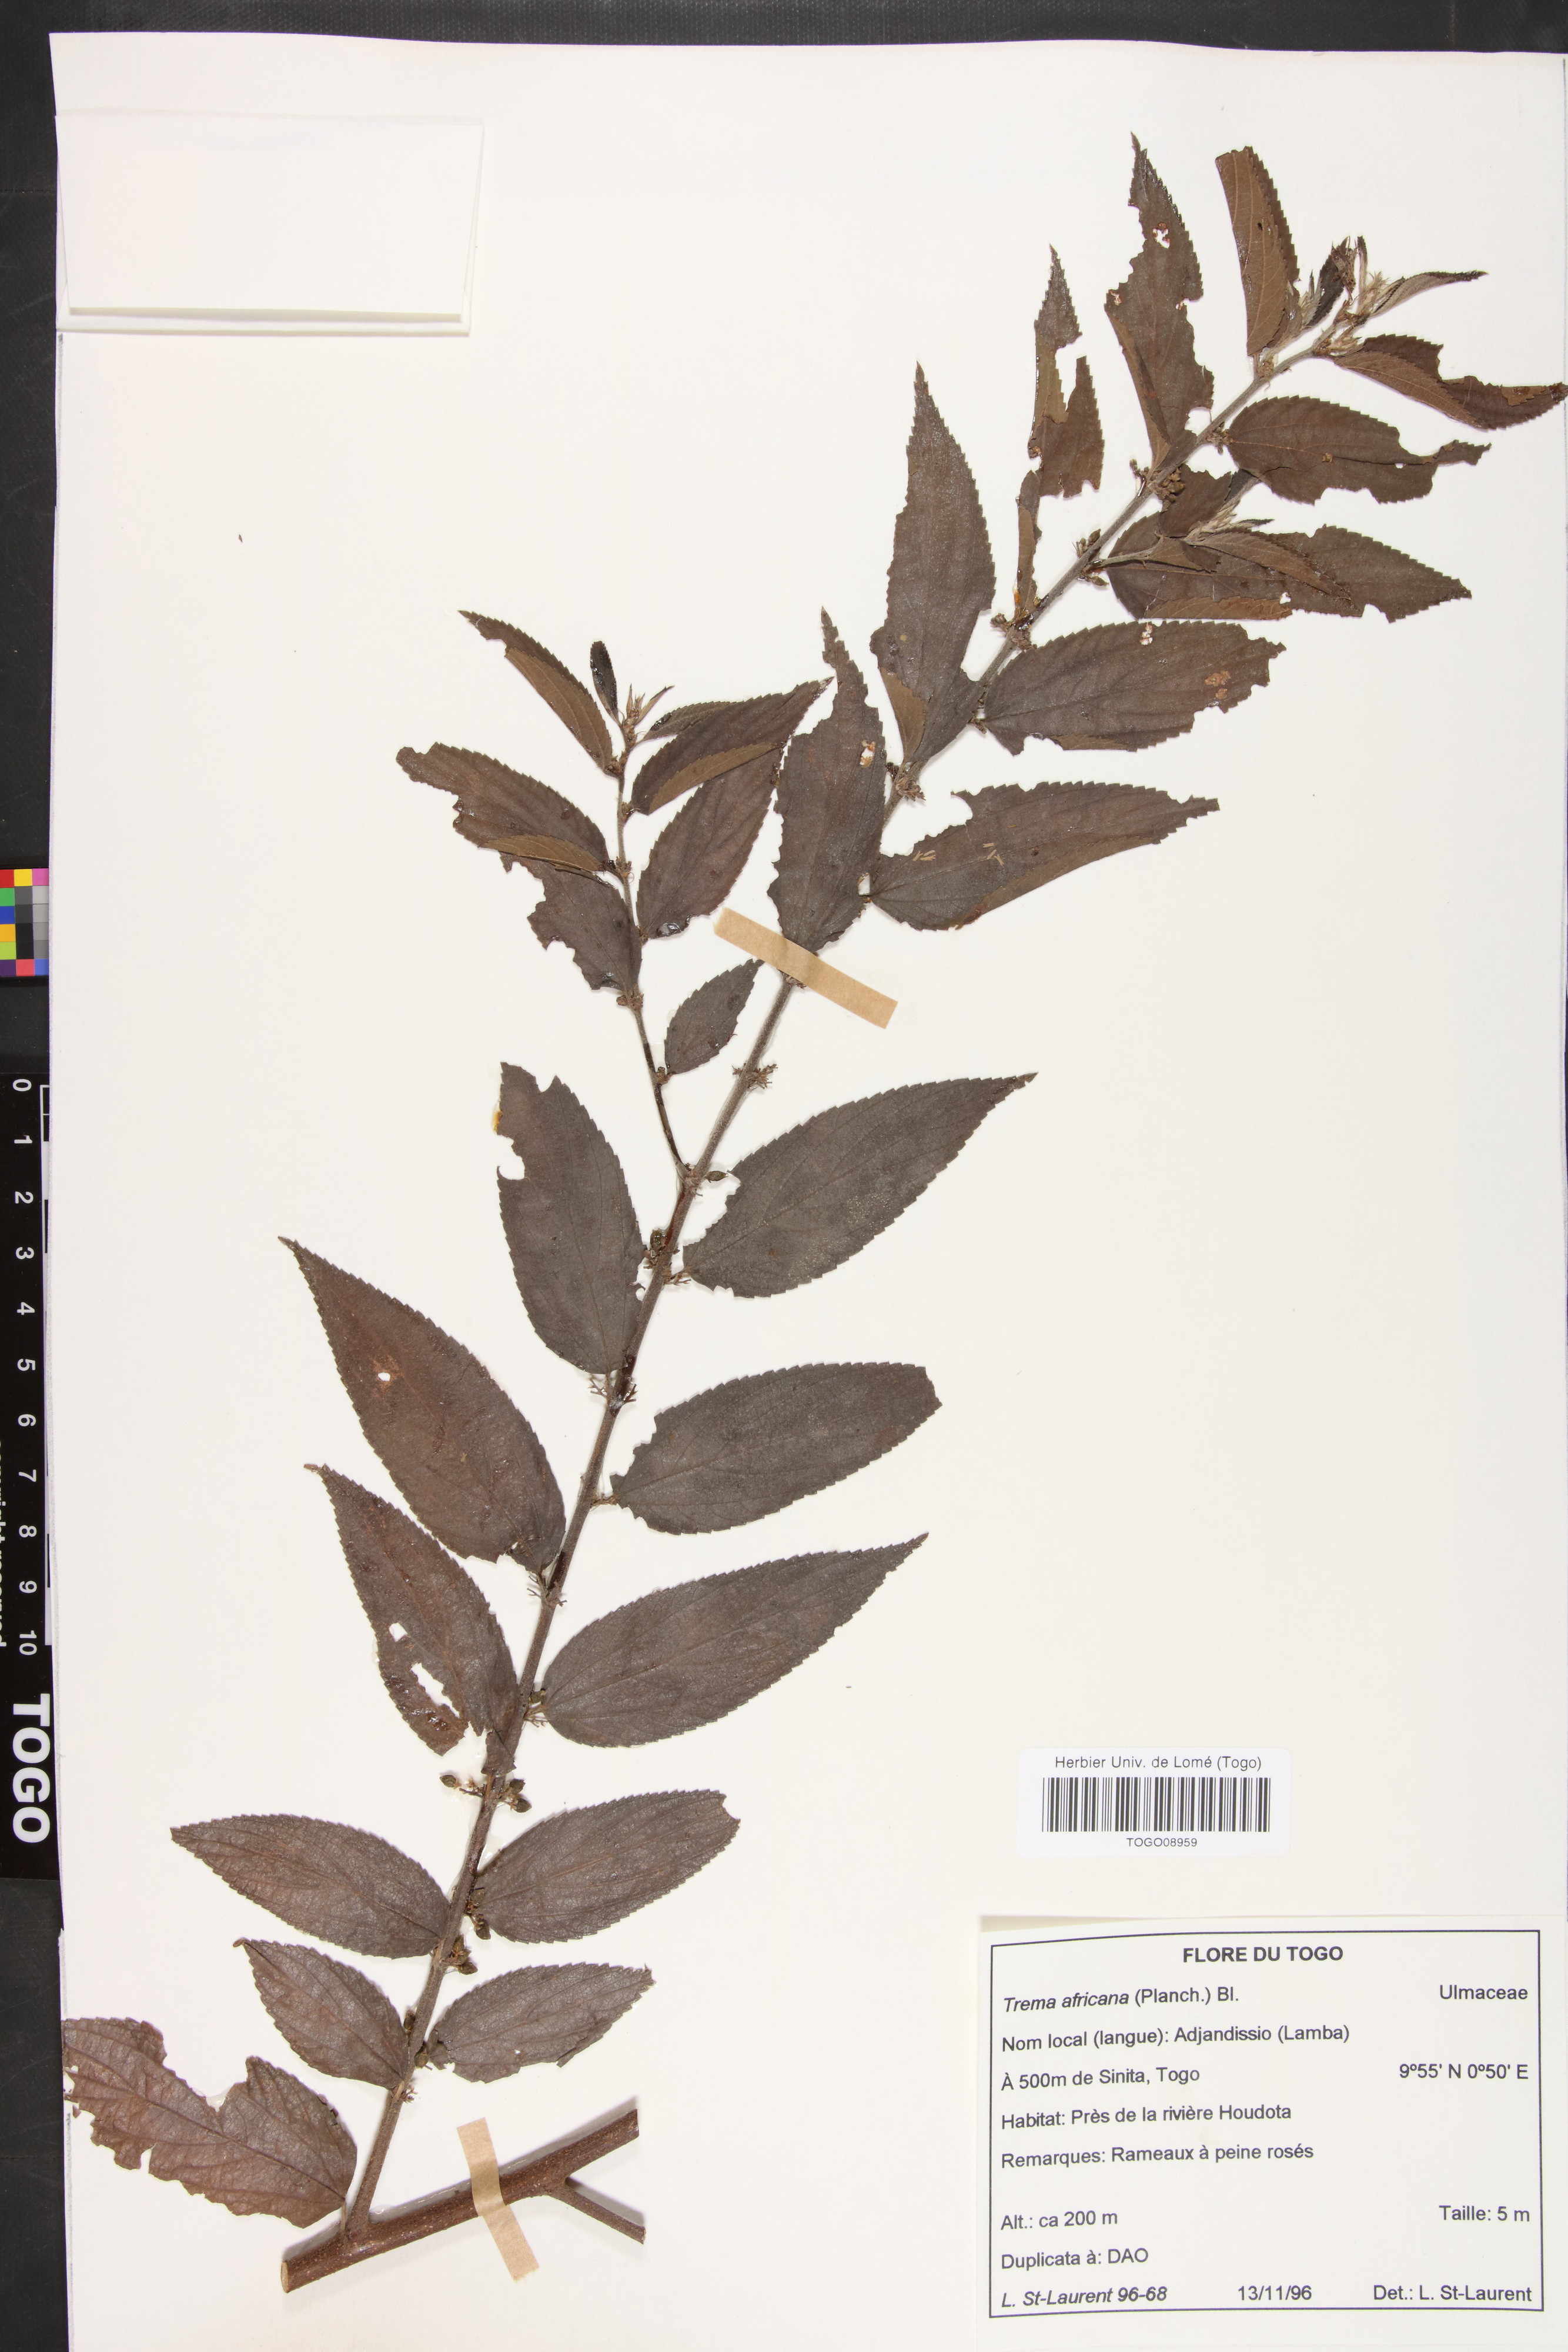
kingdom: Plantae
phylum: Tracheophyta
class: Magnoliopsida
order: Rosales
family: Cannabaceae
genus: Trema
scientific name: Trema orientale
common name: Indian charcoal tree
